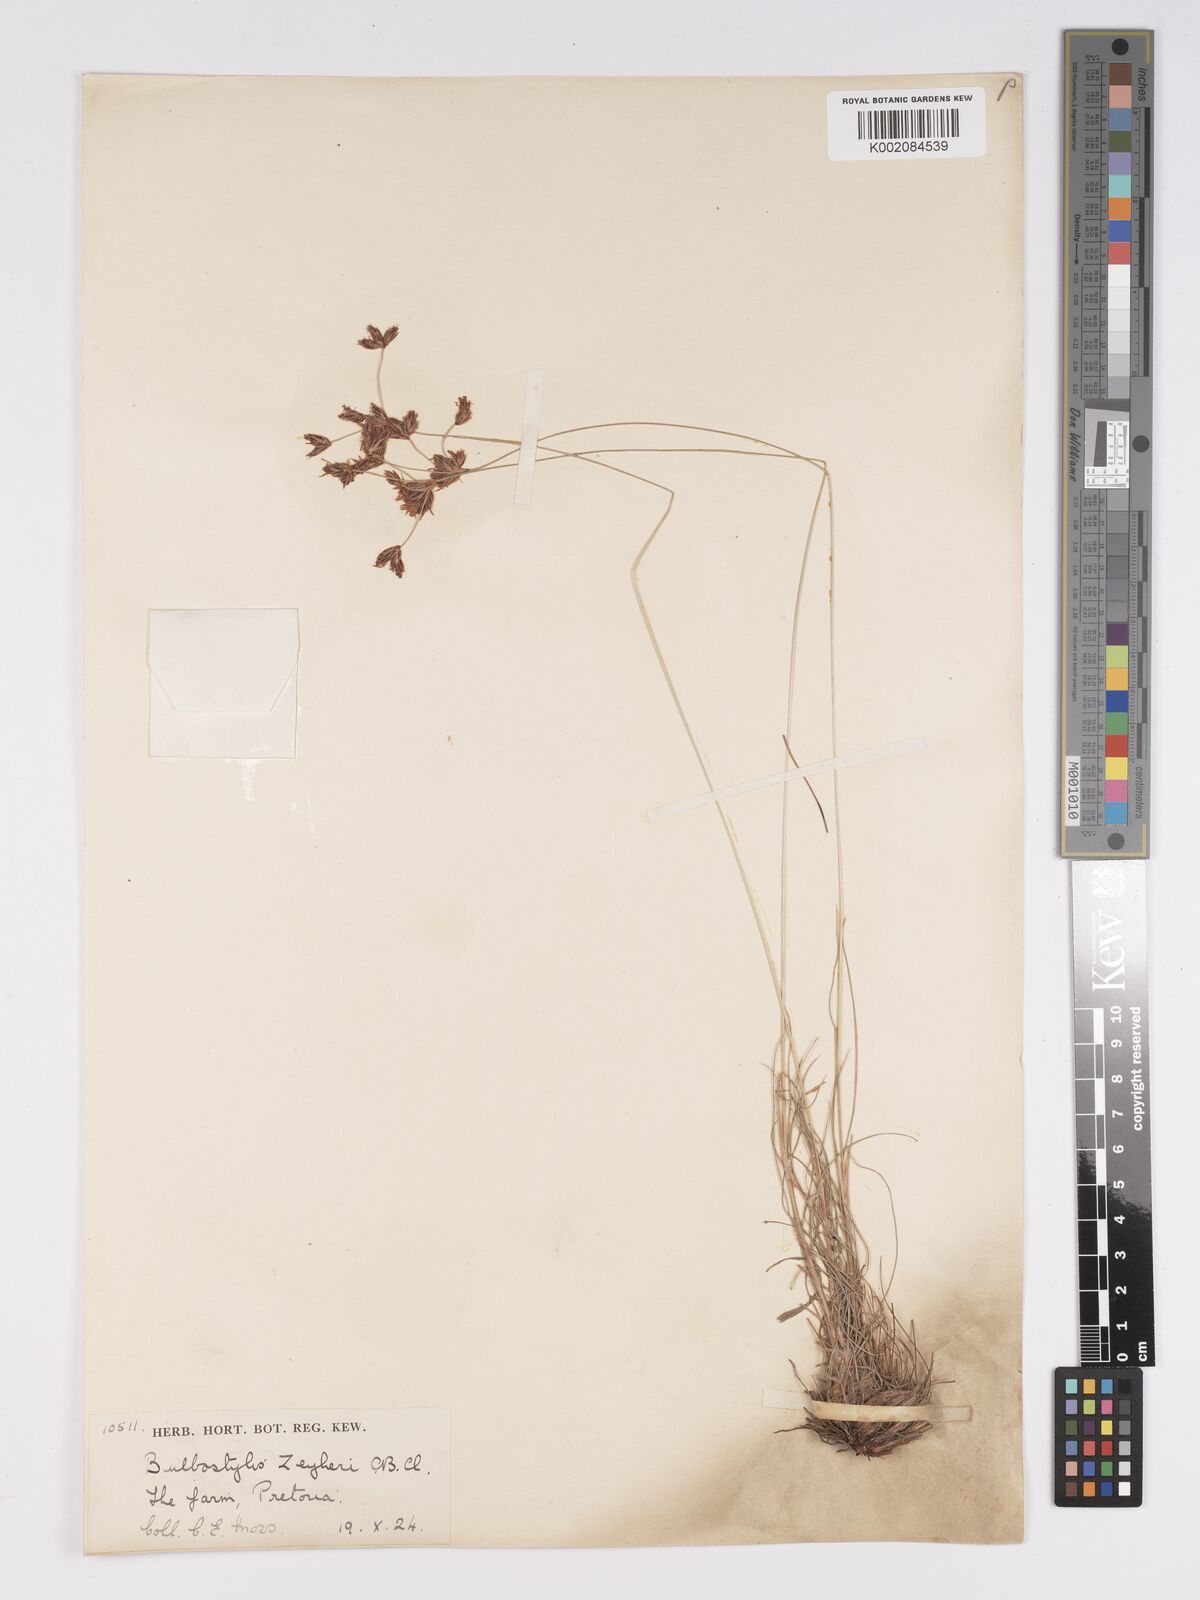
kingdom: Plantae
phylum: Tracheophyta
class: Liliopsida
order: Poales
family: Cyperaceae
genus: Bulbostylis
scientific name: Bulbostylis contexta
